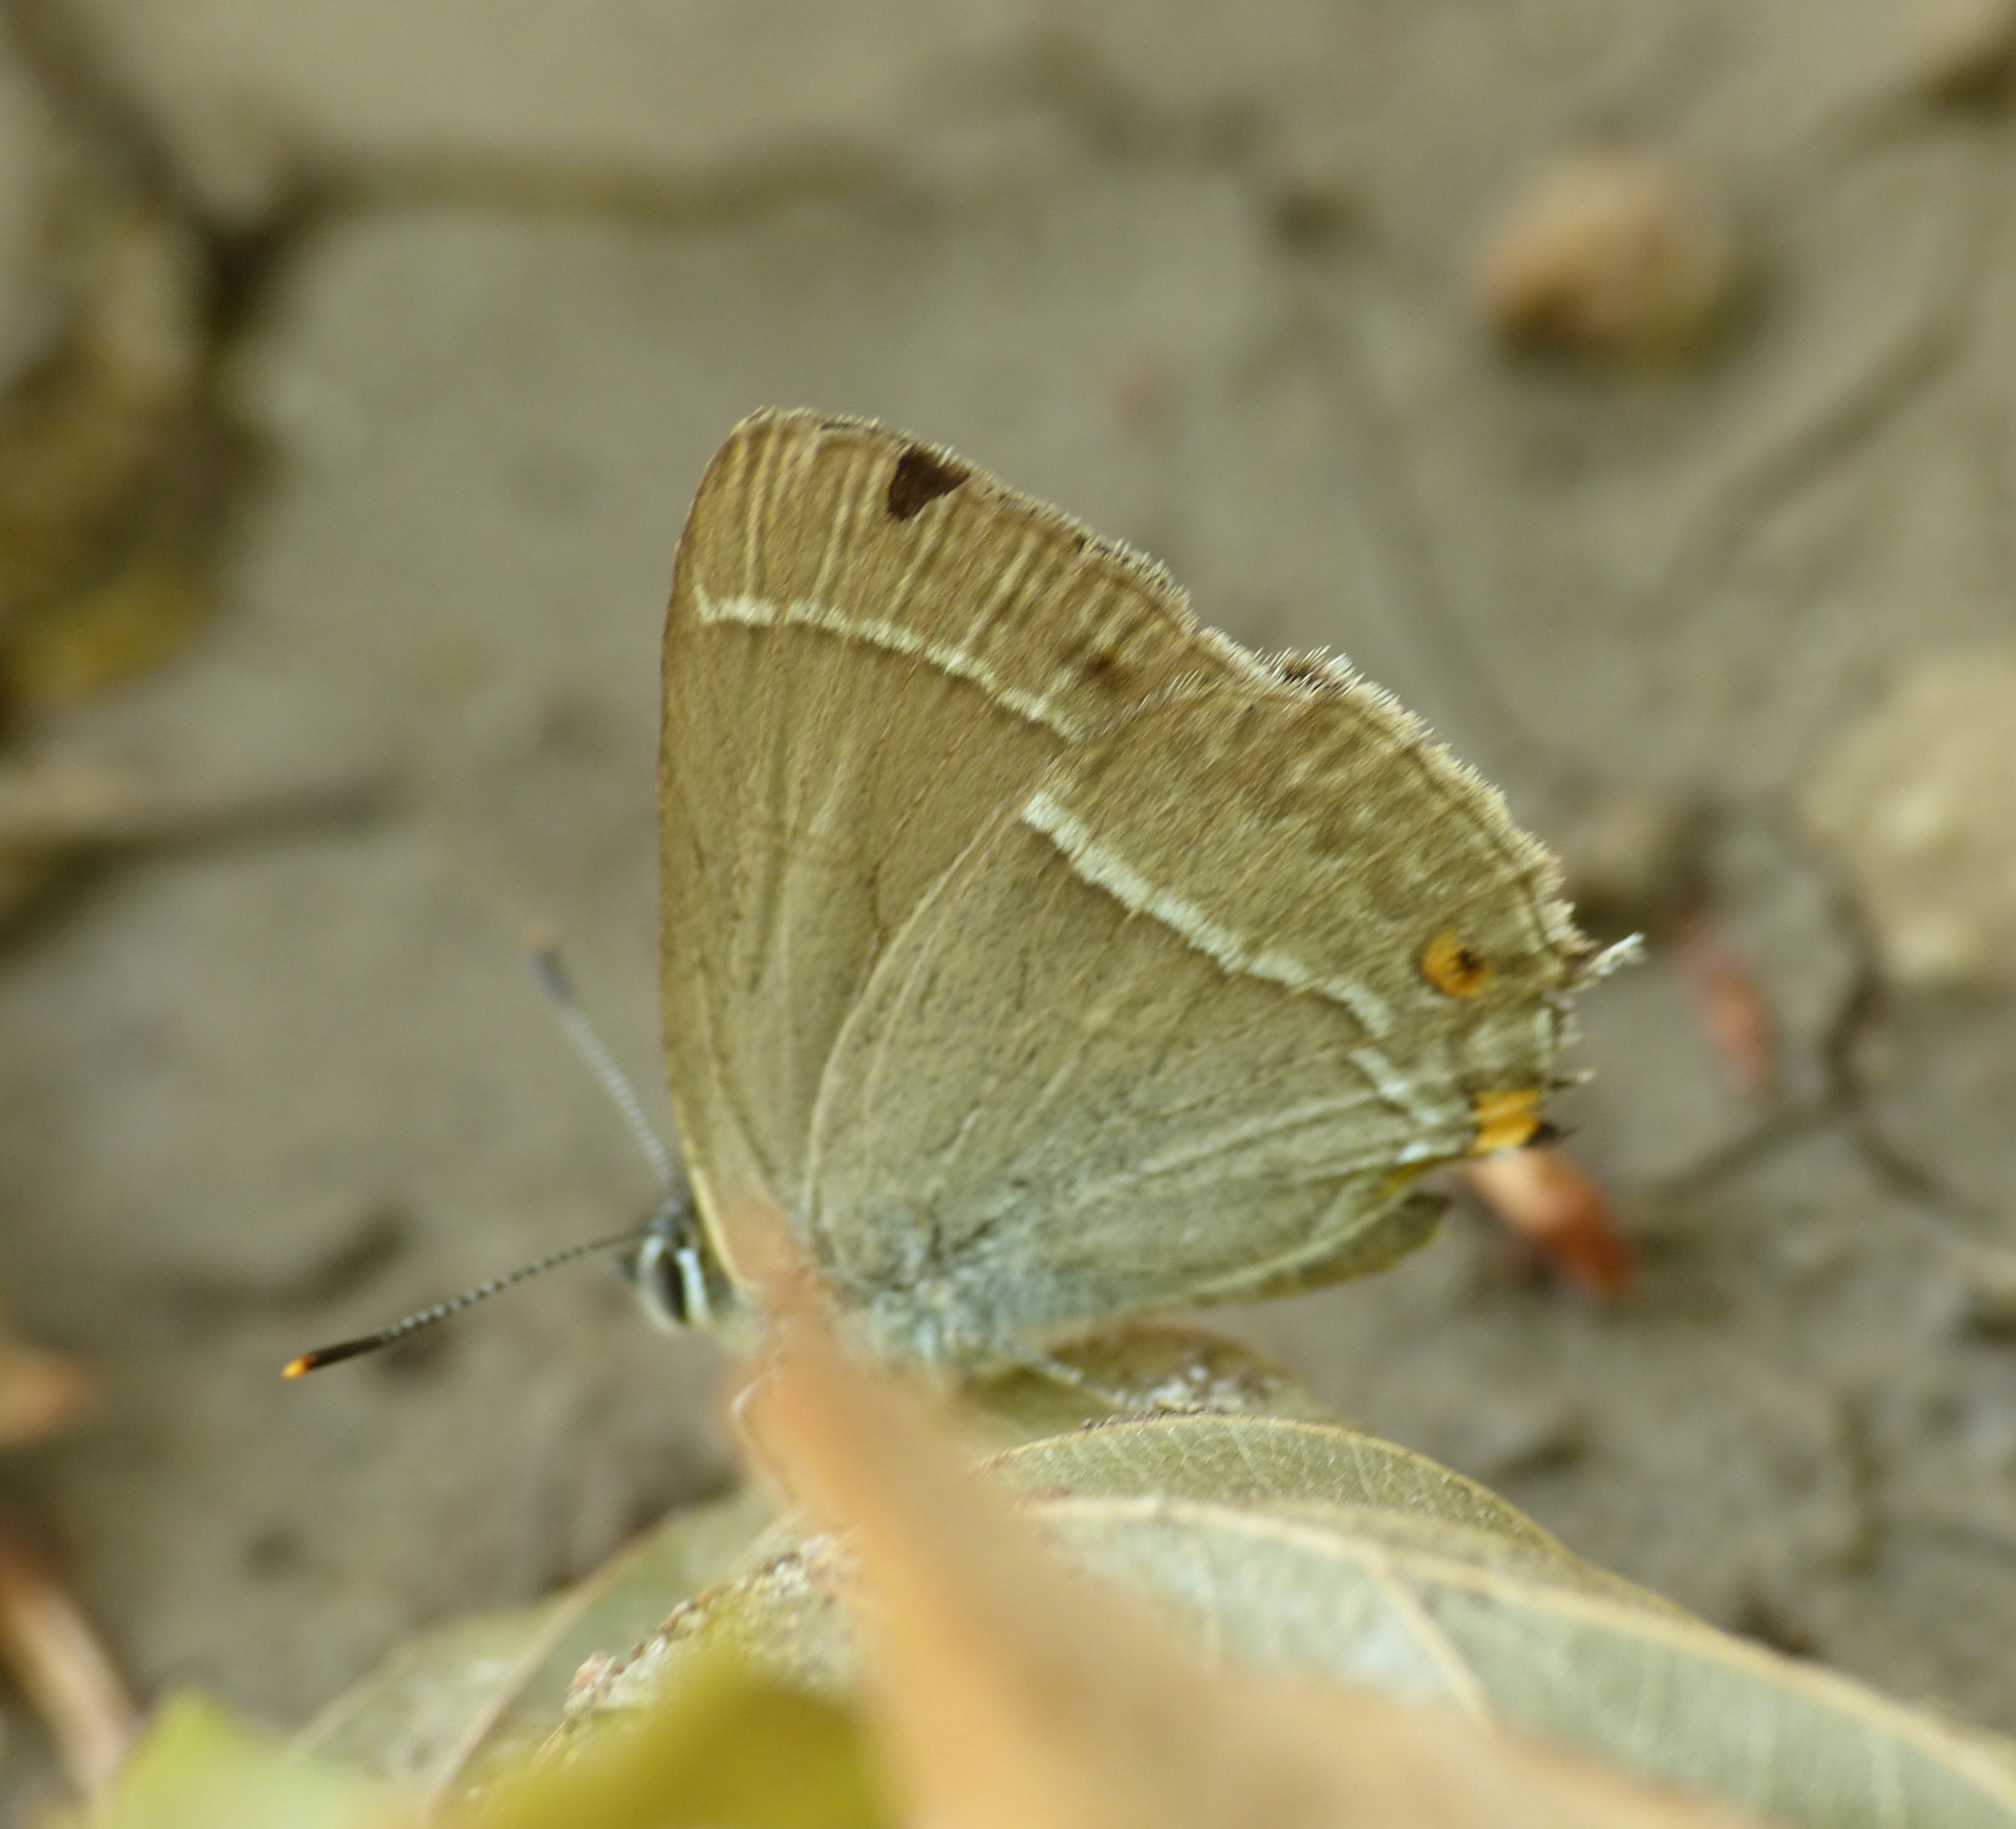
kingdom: Animalia
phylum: Arthropoda
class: Insecta
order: Lepidoptera
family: Lycaenidae
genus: Quercusia
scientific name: Quercusia quercus
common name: Blåhale
